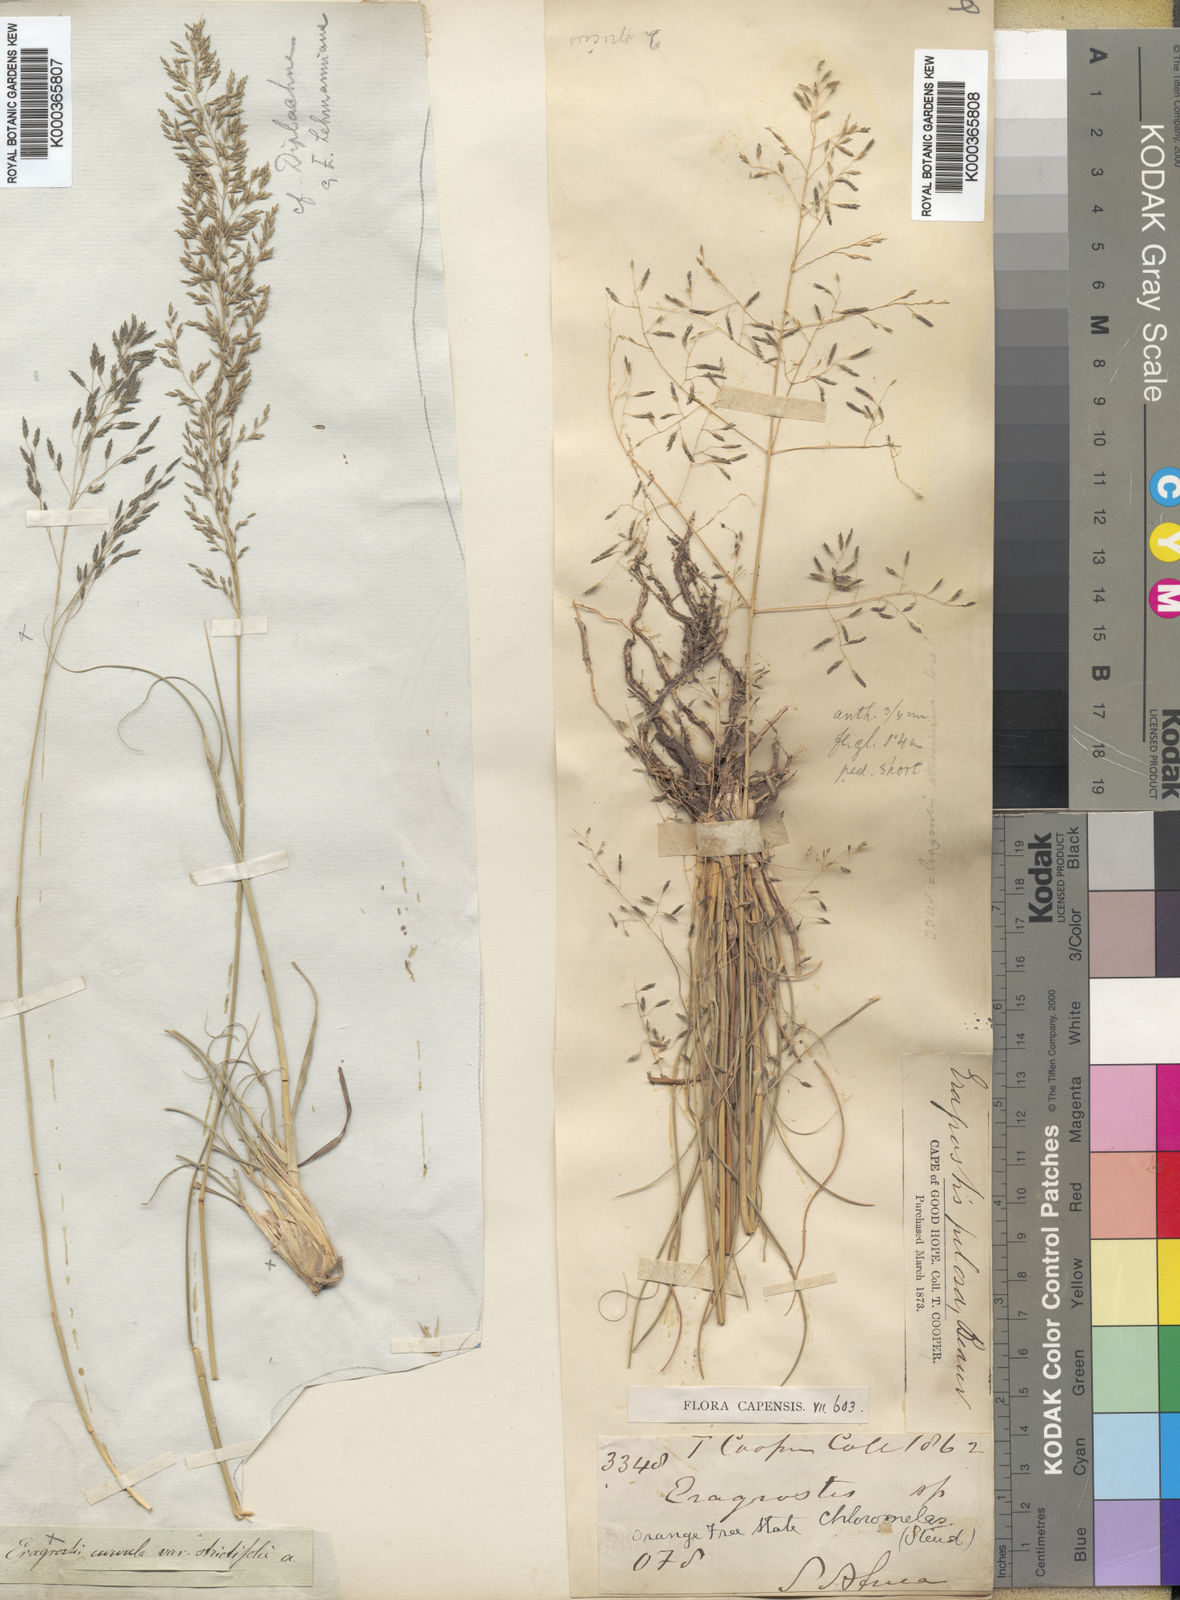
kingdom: Plantae
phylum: Tracheophyta
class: Liliopsida
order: Poales
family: Poaceae
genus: Eragrostis
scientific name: Eragrostis curvula
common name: African love-grass
